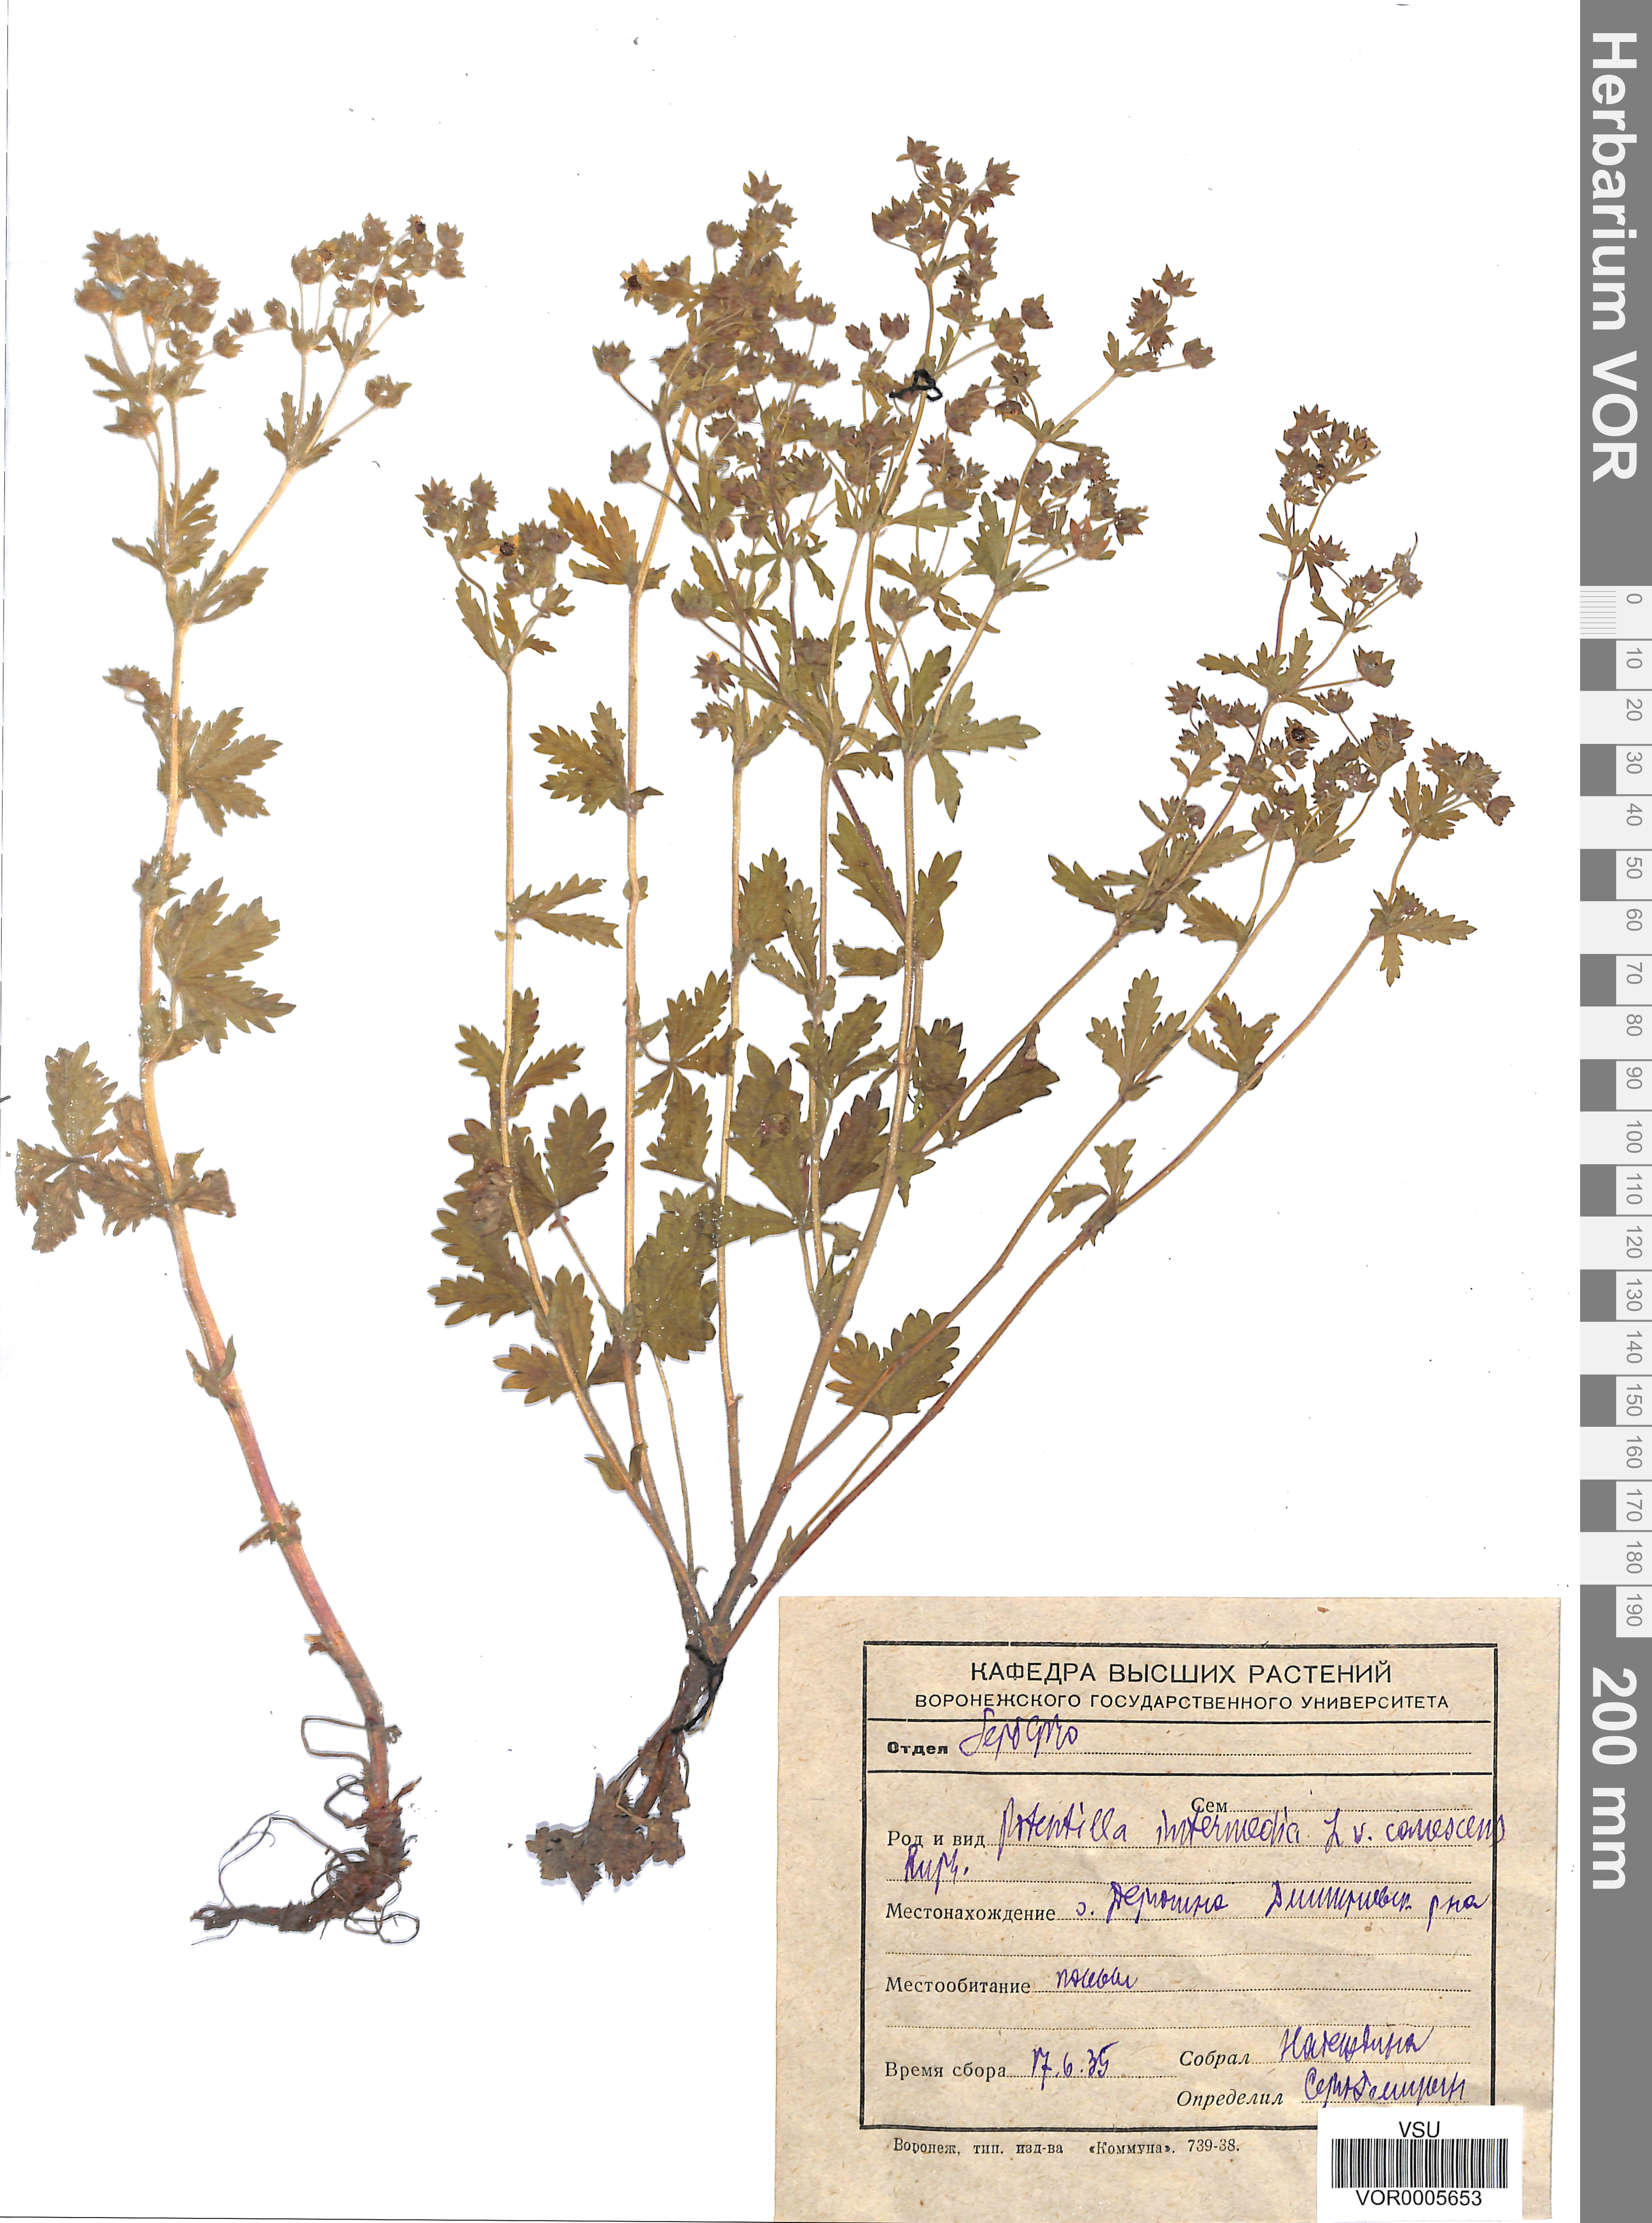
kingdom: Plantae
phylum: Tracheophyta
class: Magnoliopsida
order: Rosales
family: Rosaceae
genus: Potentilla
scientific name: Potentilla norvegica
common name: Ternate-leaved cinquefoil
